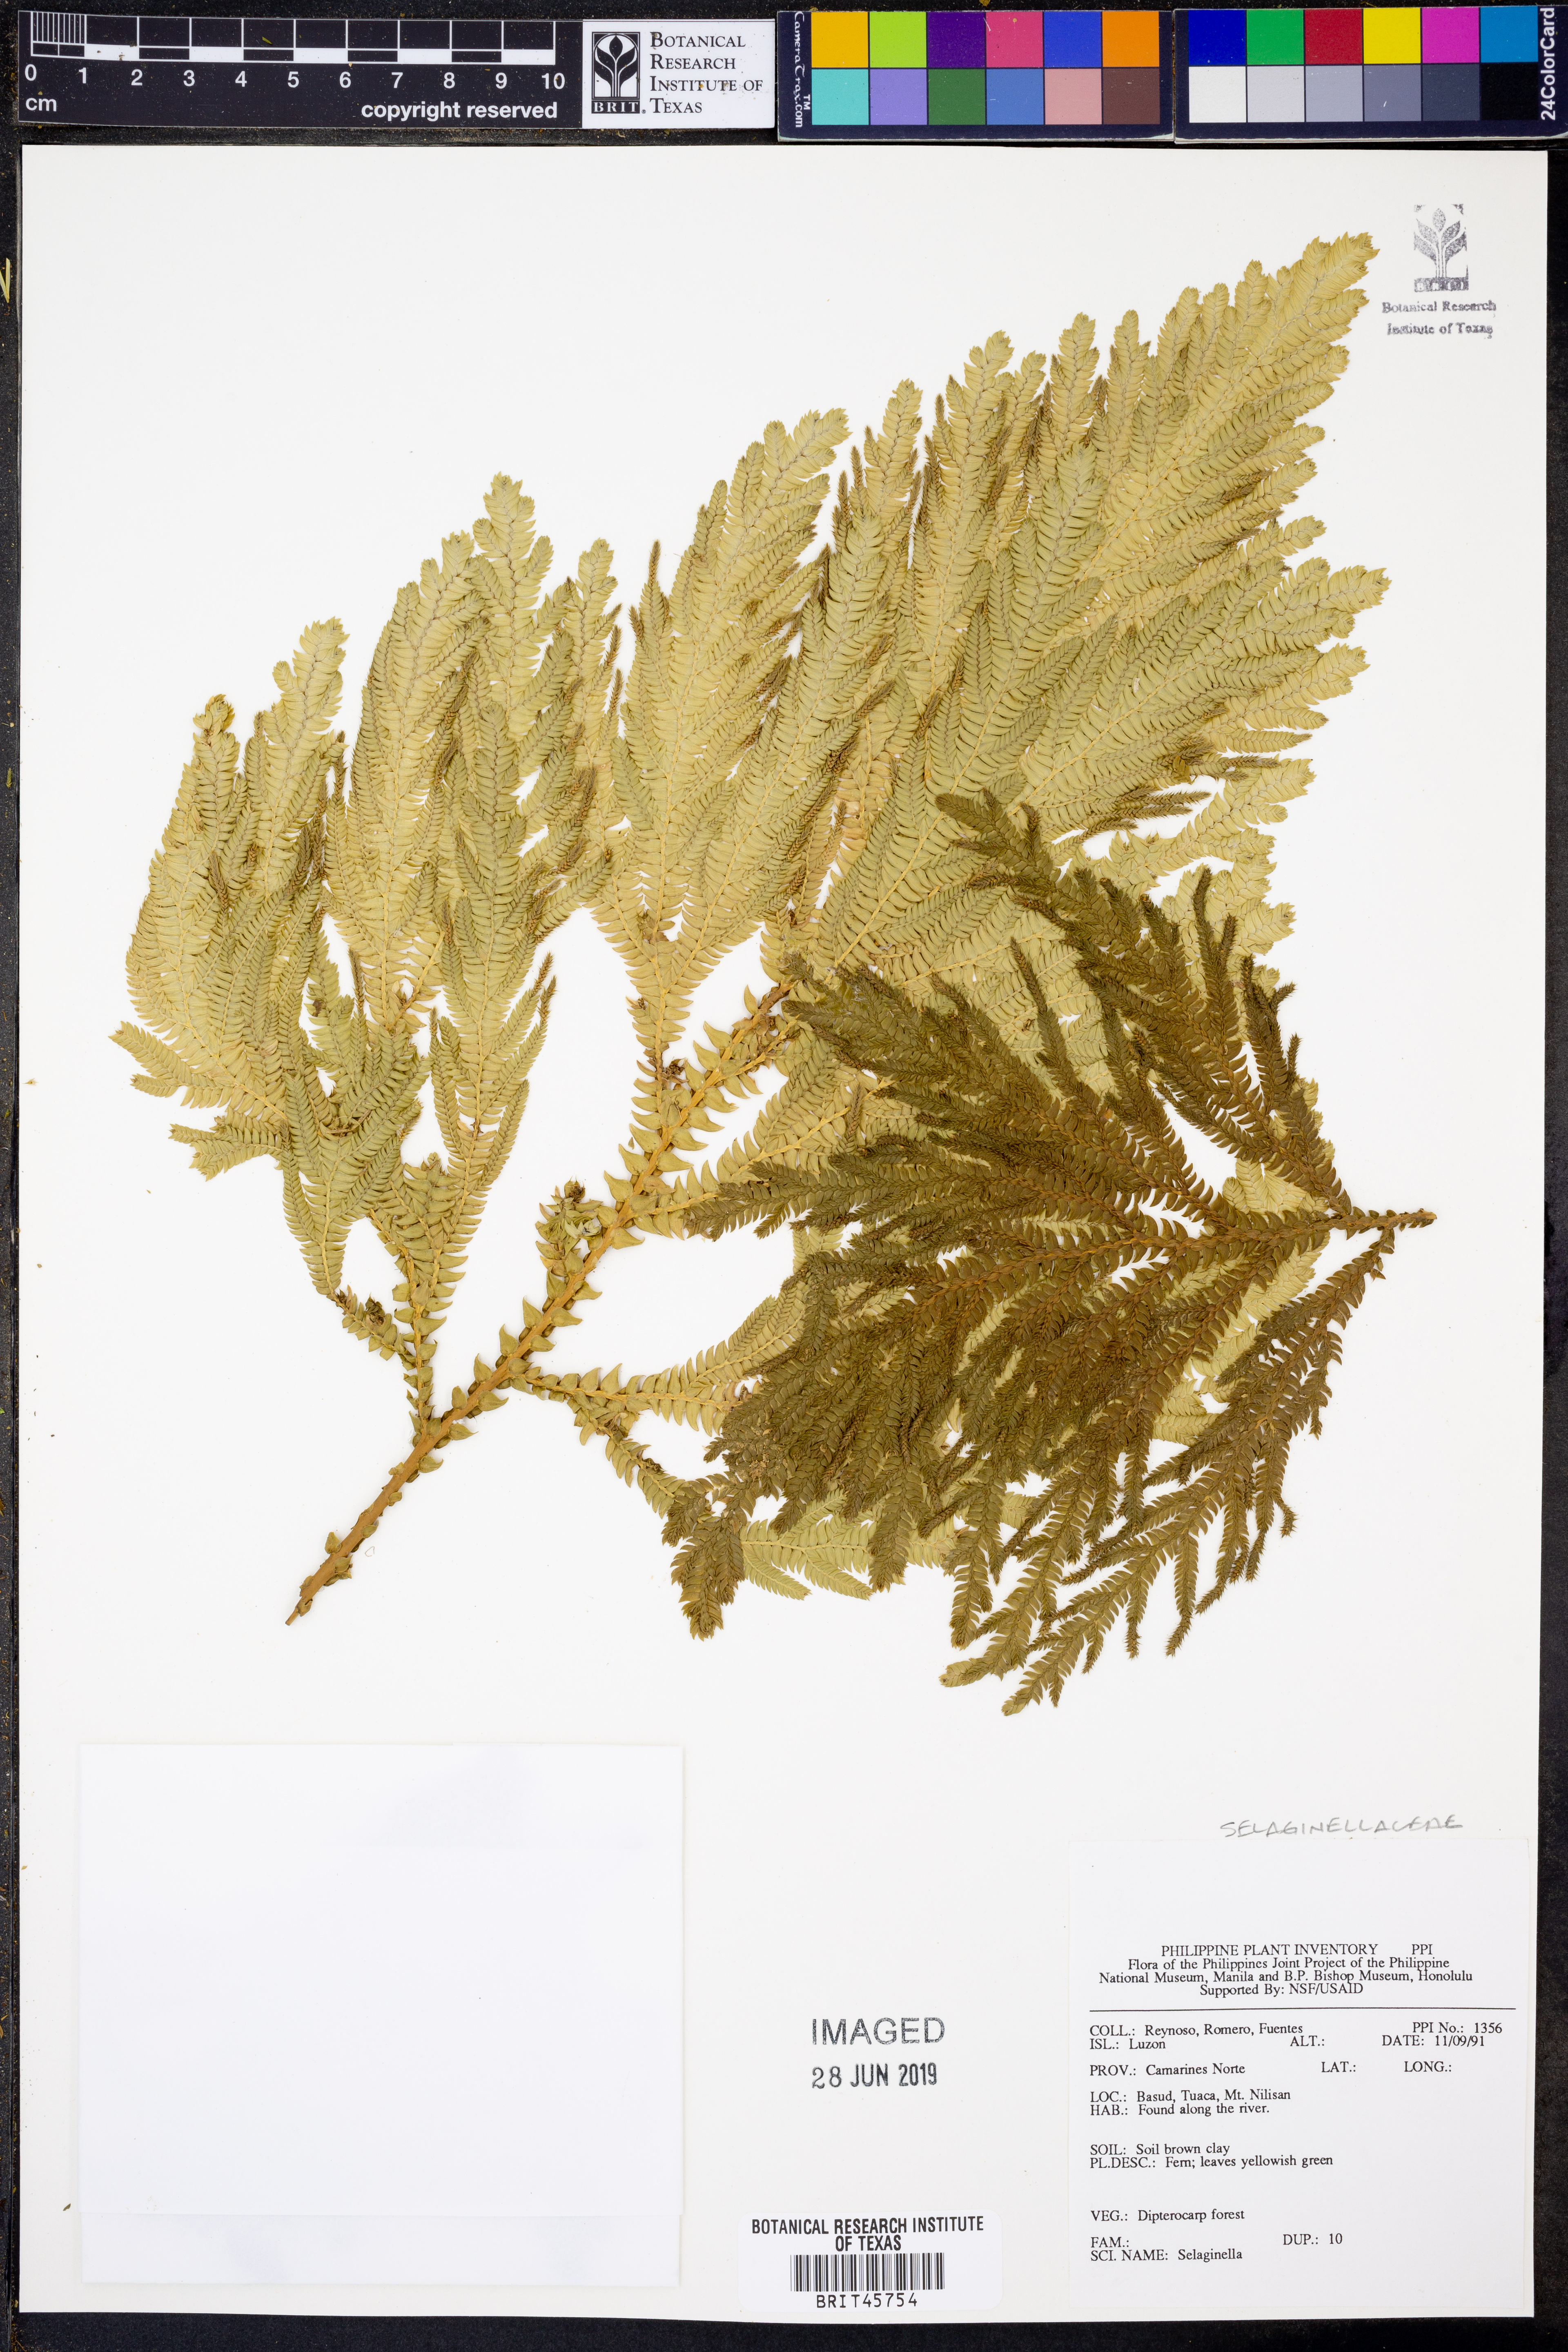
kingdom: Plantae
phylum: Tracheophyta
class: Lycopodiopsida
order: Selaginellales
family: Selaginellaceae
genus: Selaginella
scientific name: Selaginella
